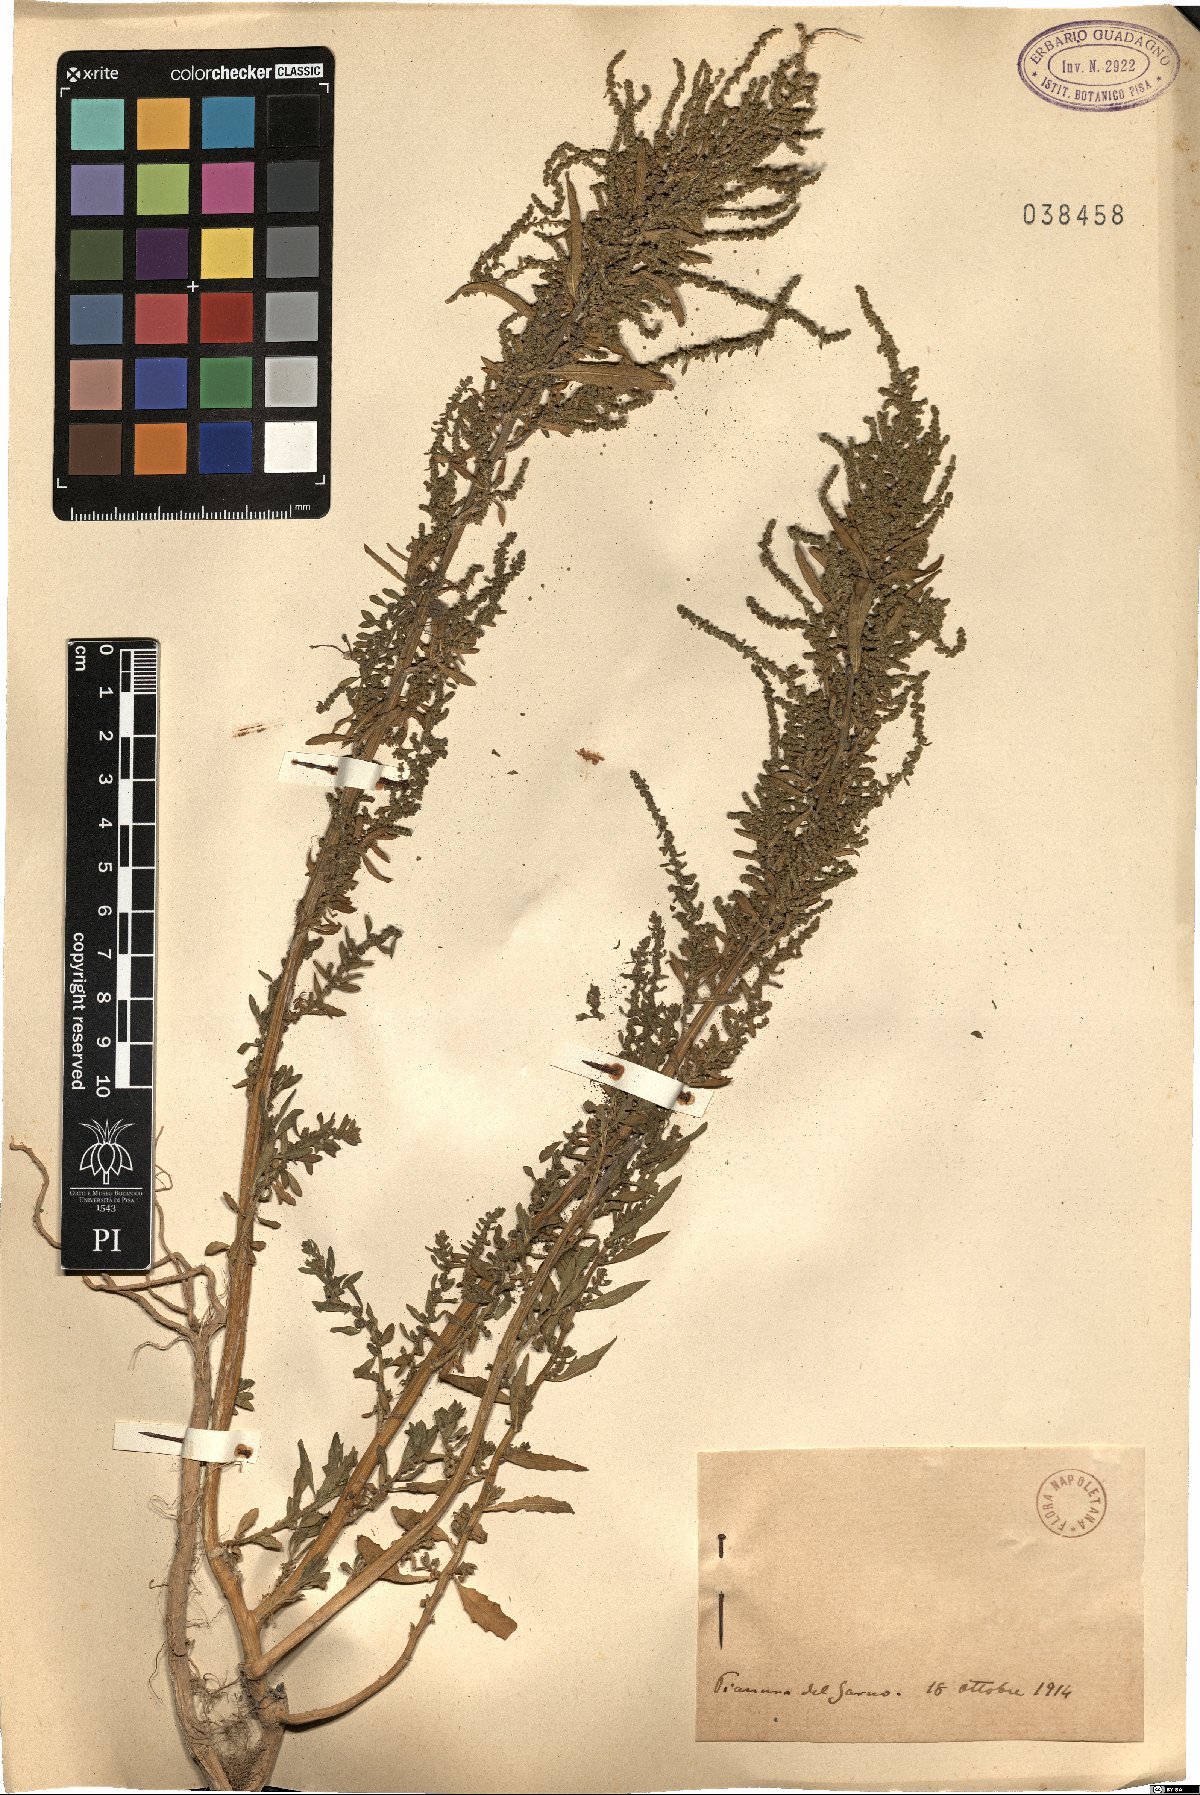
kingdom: Plantae
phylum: Tracheophyta
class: Magnoliopsida
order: Caryophyllales
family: Amaranthaceae
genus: Chenopodium
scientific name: Chenopodium
